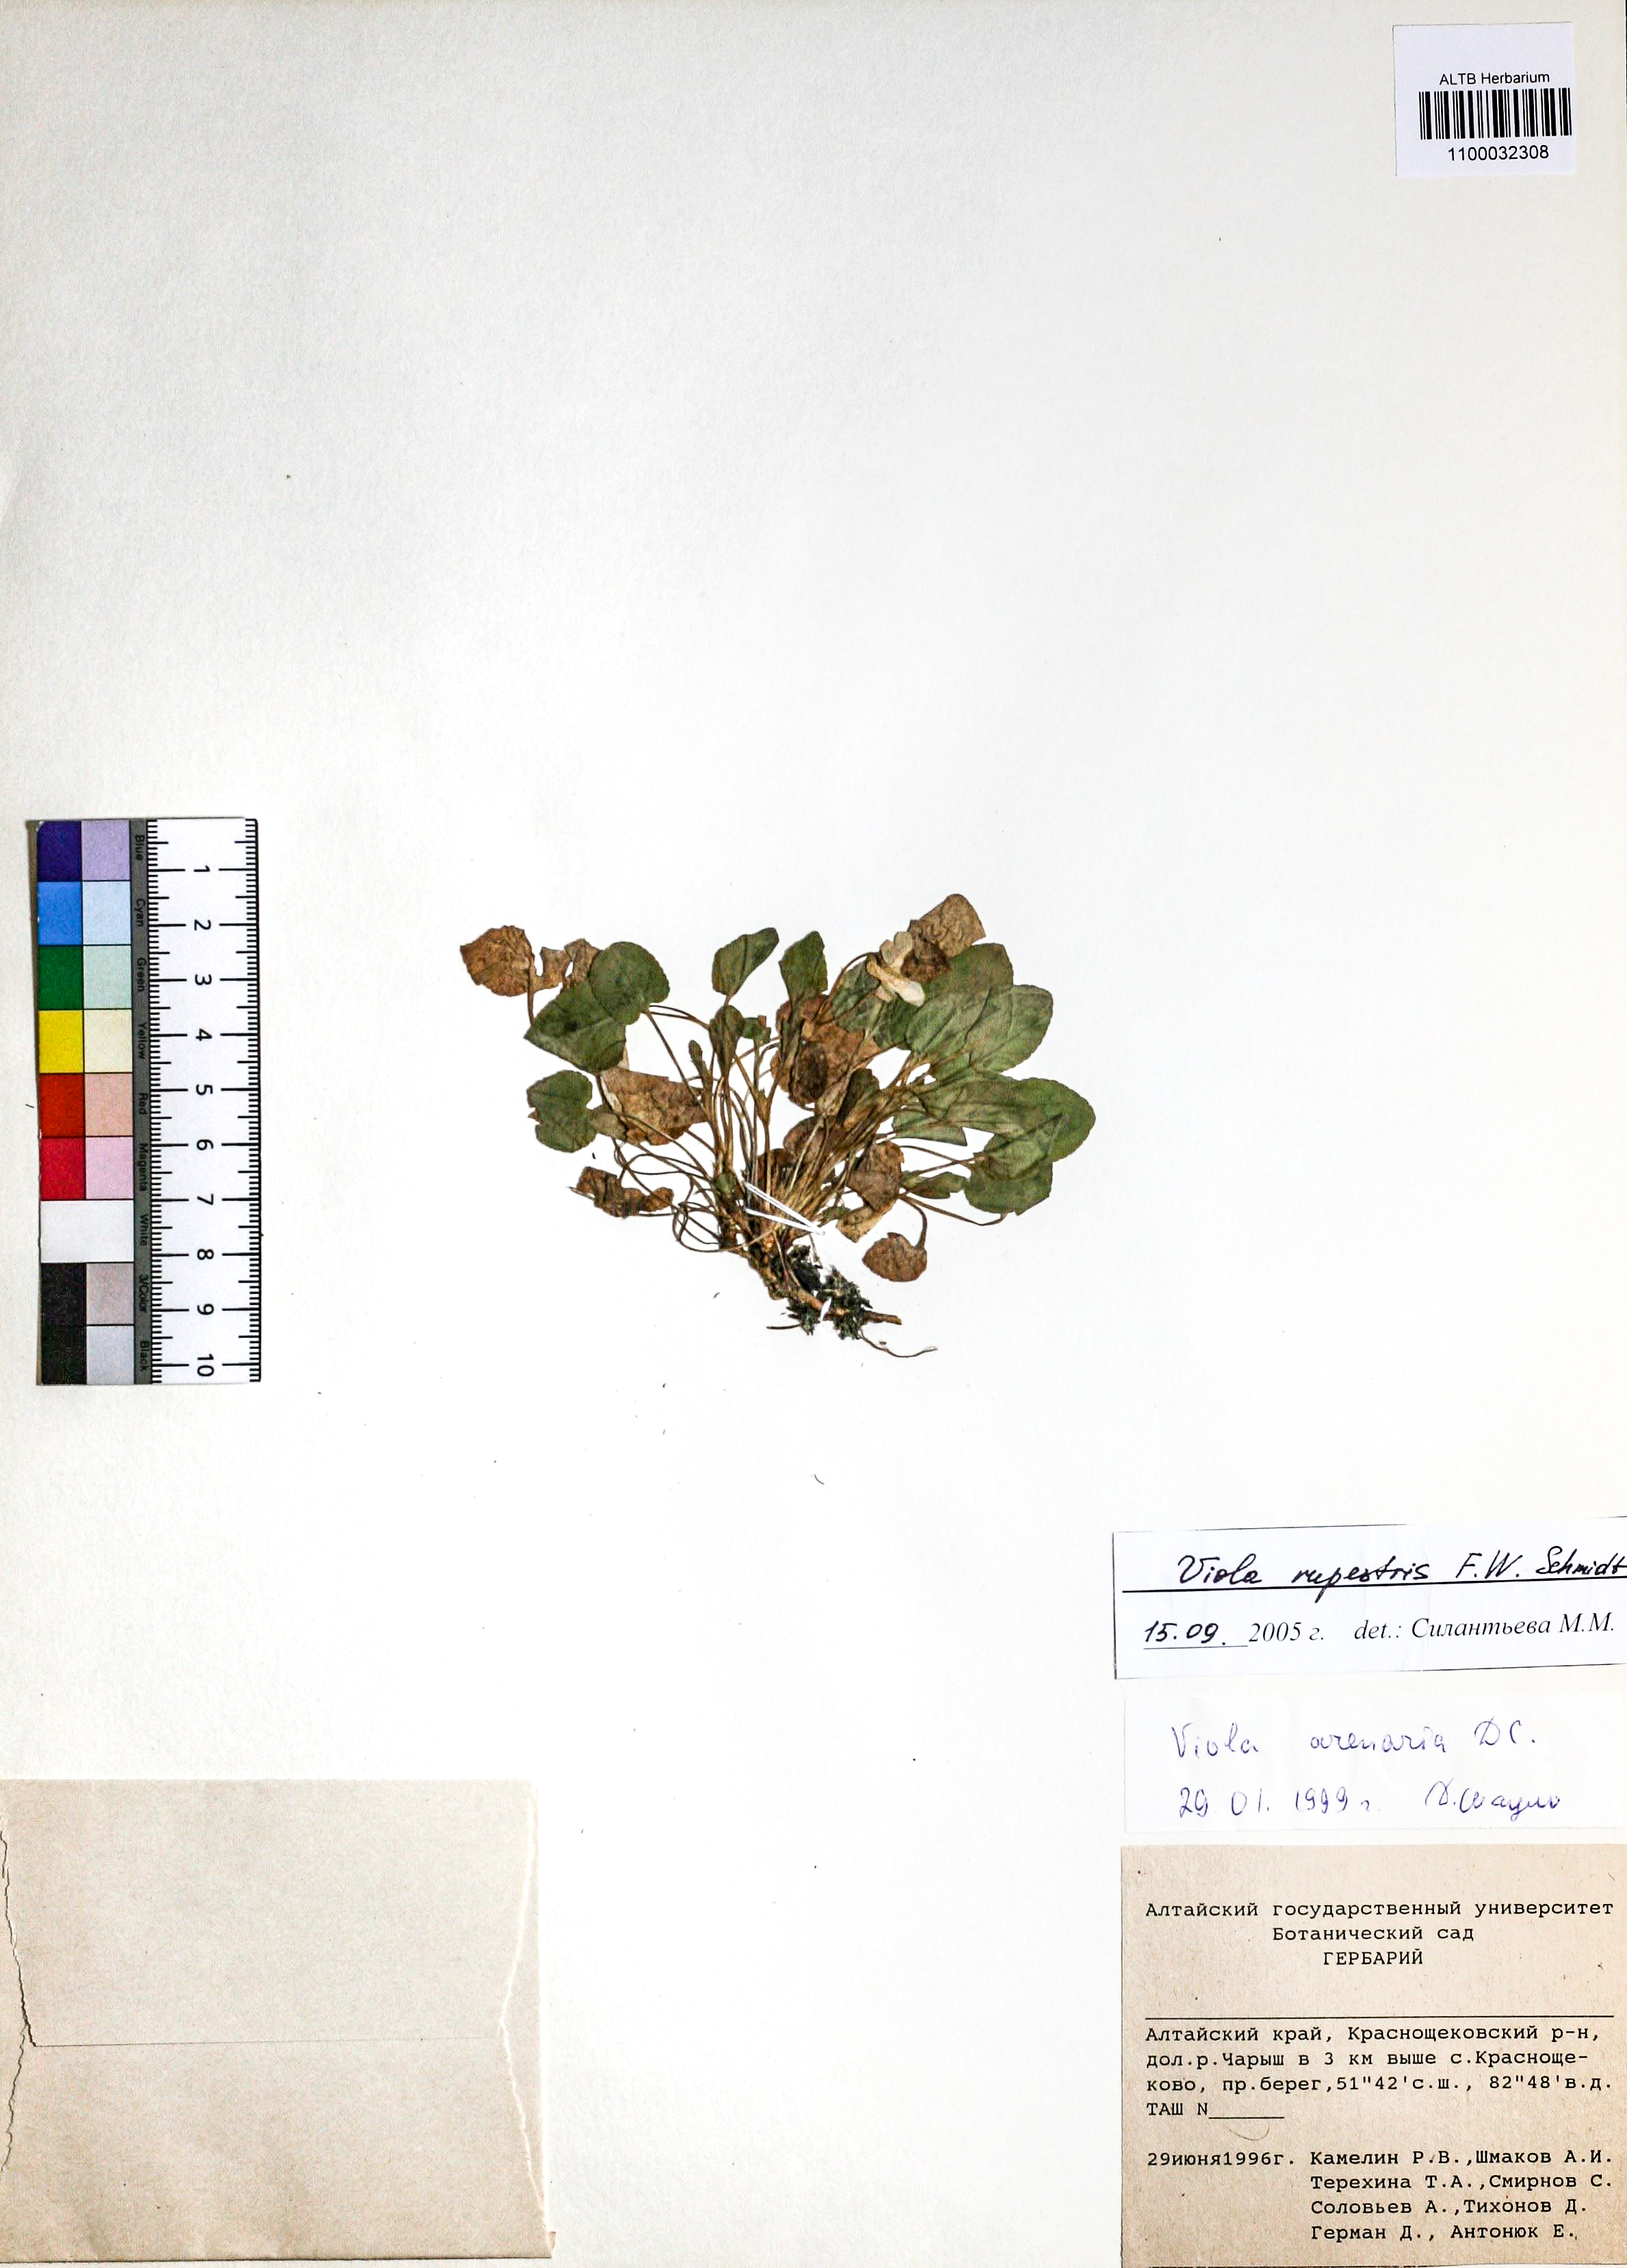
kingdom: Plantae
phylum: Tracheophyta
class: Magnoliopsida
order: Malpighiales
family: Violaceae
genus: Viola
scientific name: Viola rupestris
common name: Teesdale violet
